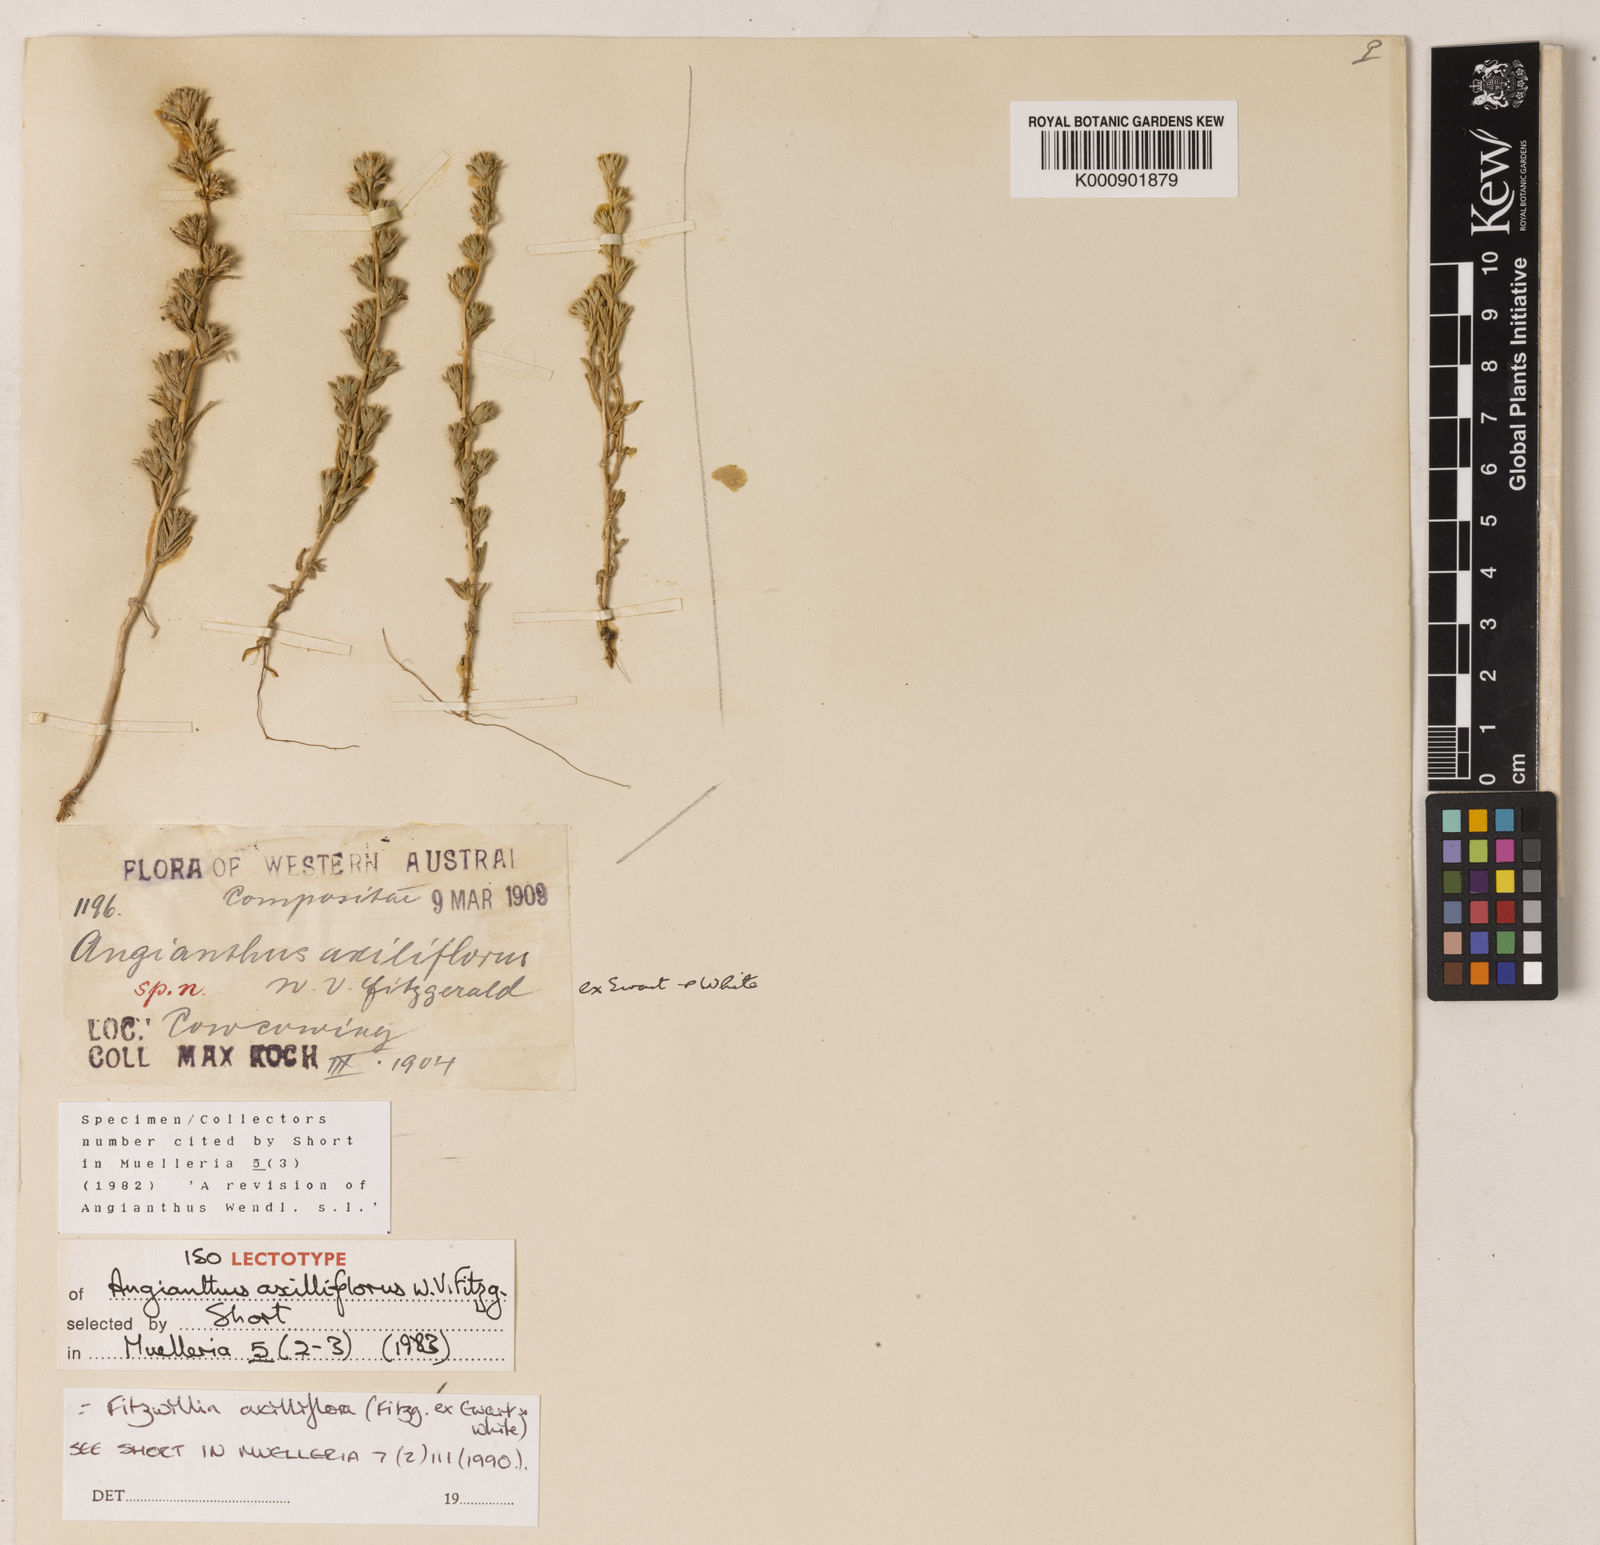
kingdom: Plantae
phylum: Tracheophyta
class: Magnoliopsida
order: Asterales
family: Asteraceae
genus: Fitzwillia
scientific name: Fitzwillia
